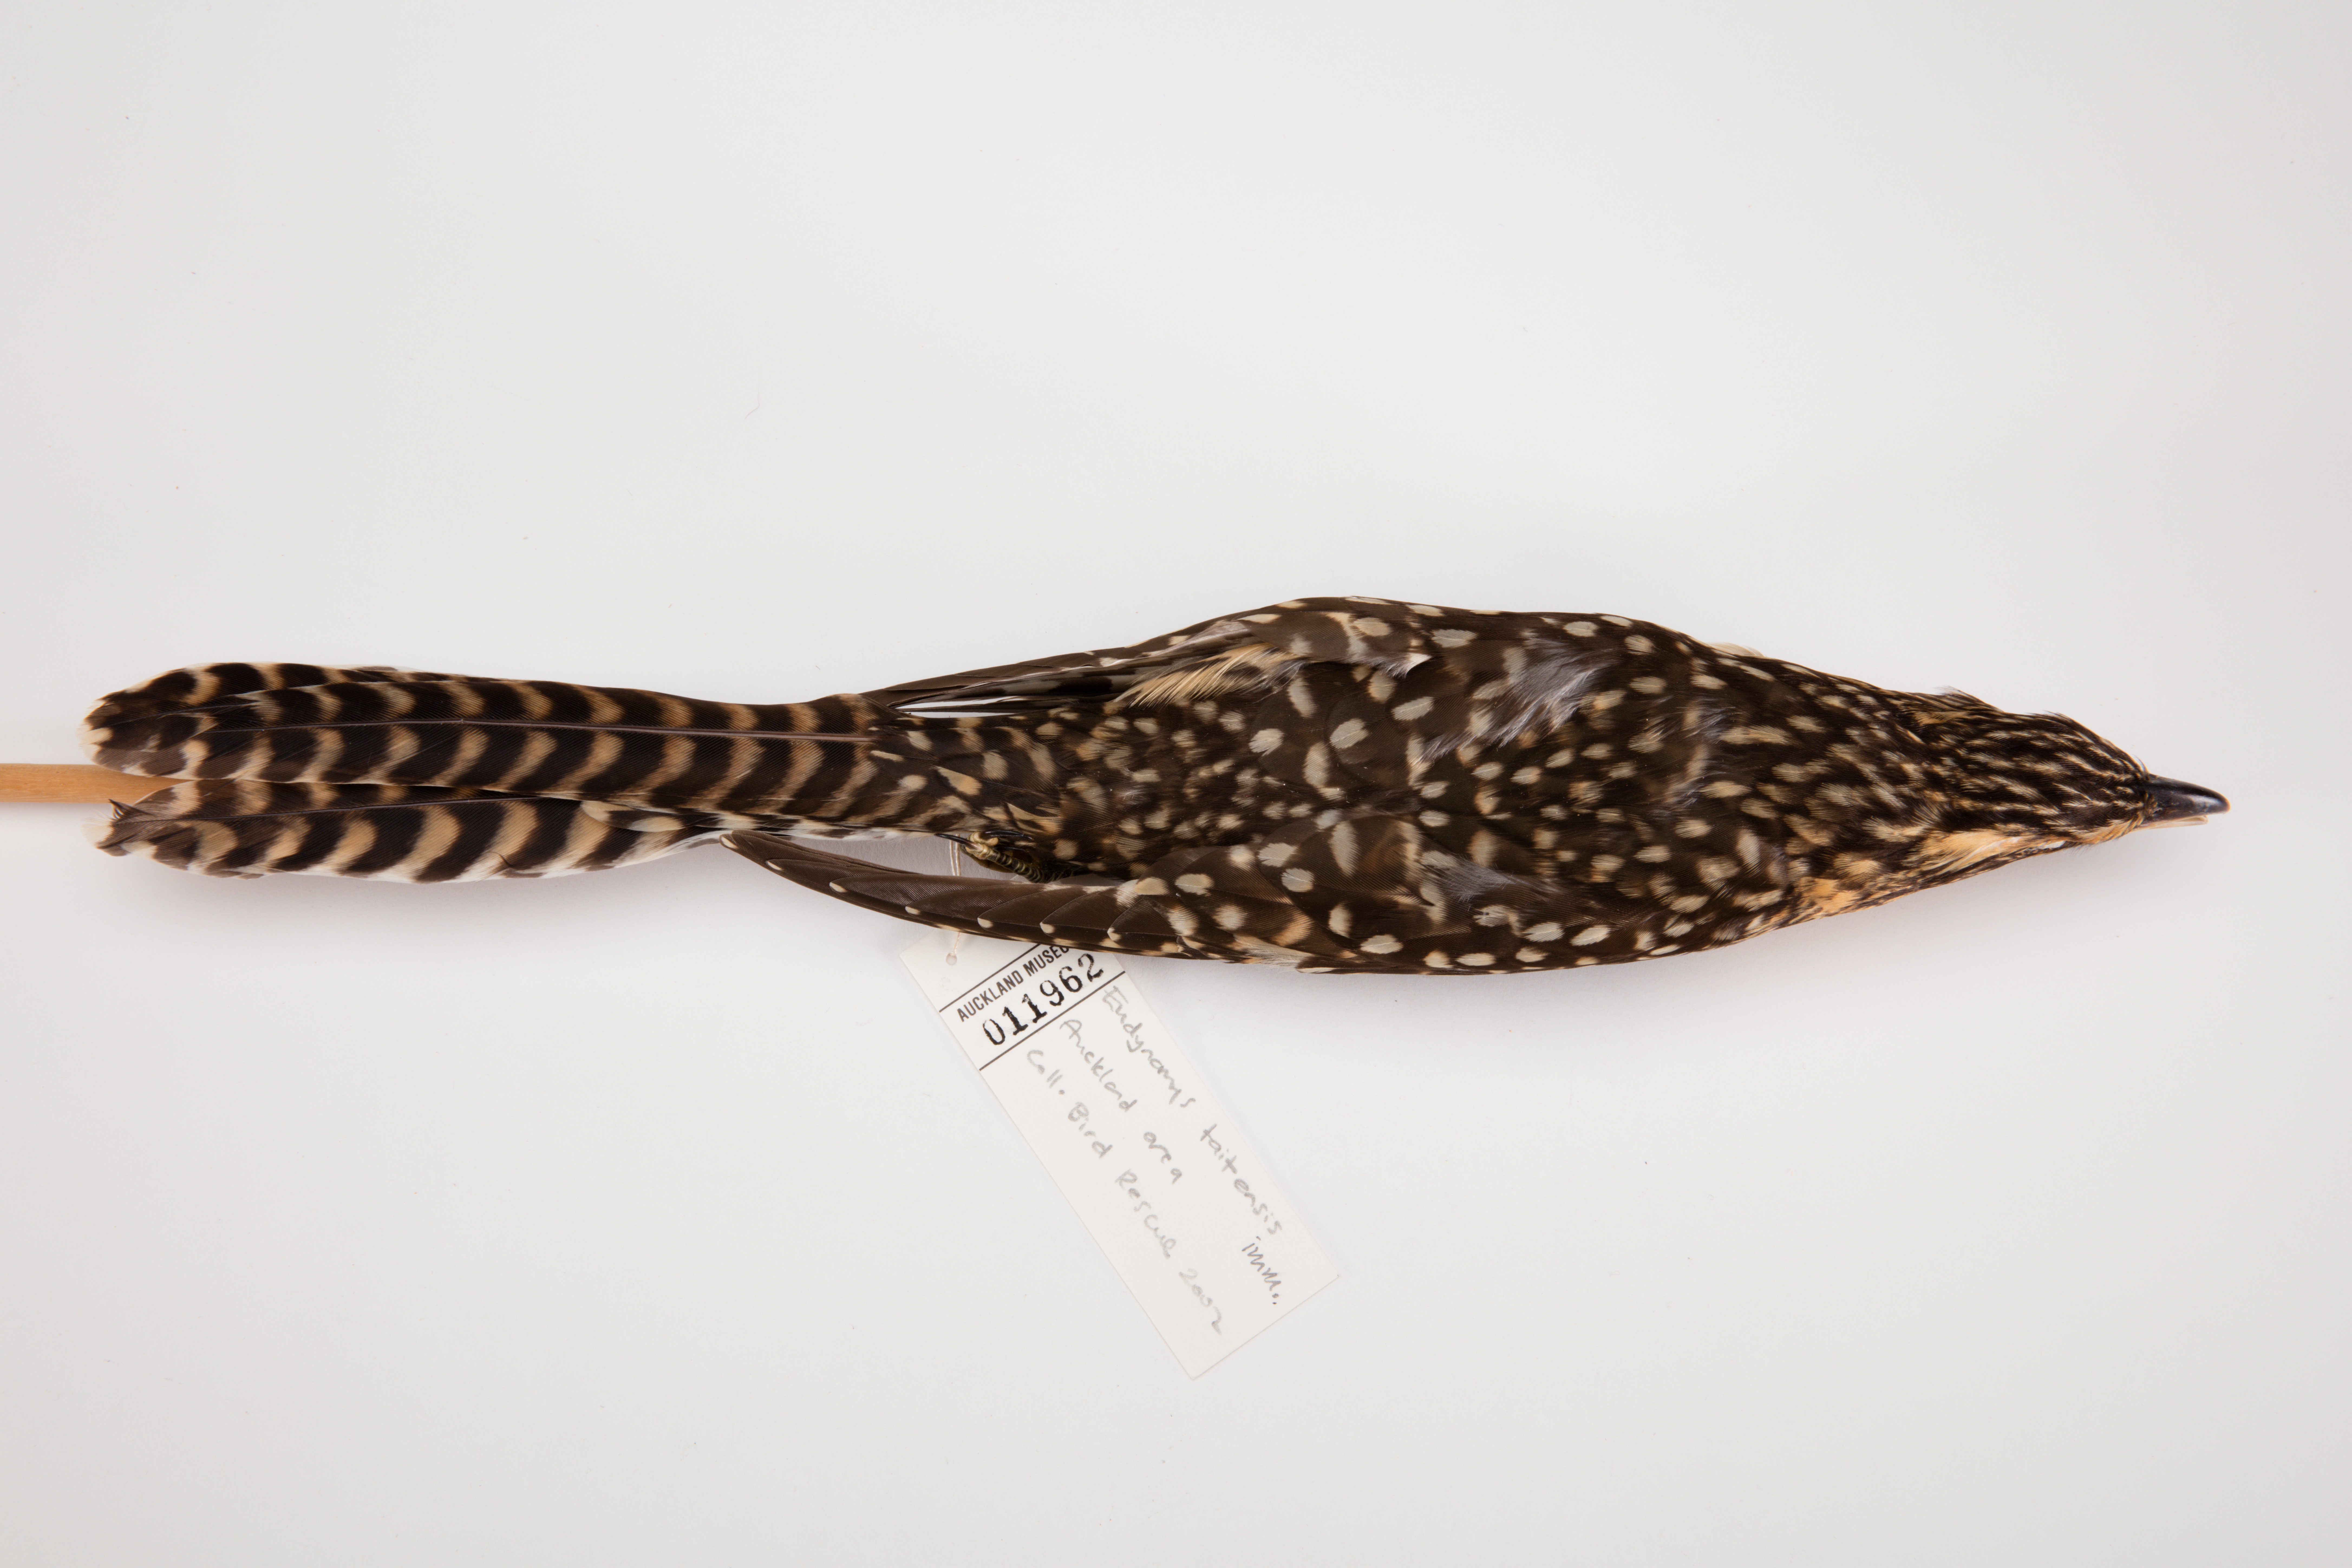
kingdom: Animalia
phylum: Chordata
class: Aves
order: Cuculiformes
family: Cuculidae
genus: Urodynamis
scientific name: Urodynamis taitensis
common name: Long-tailed koel
